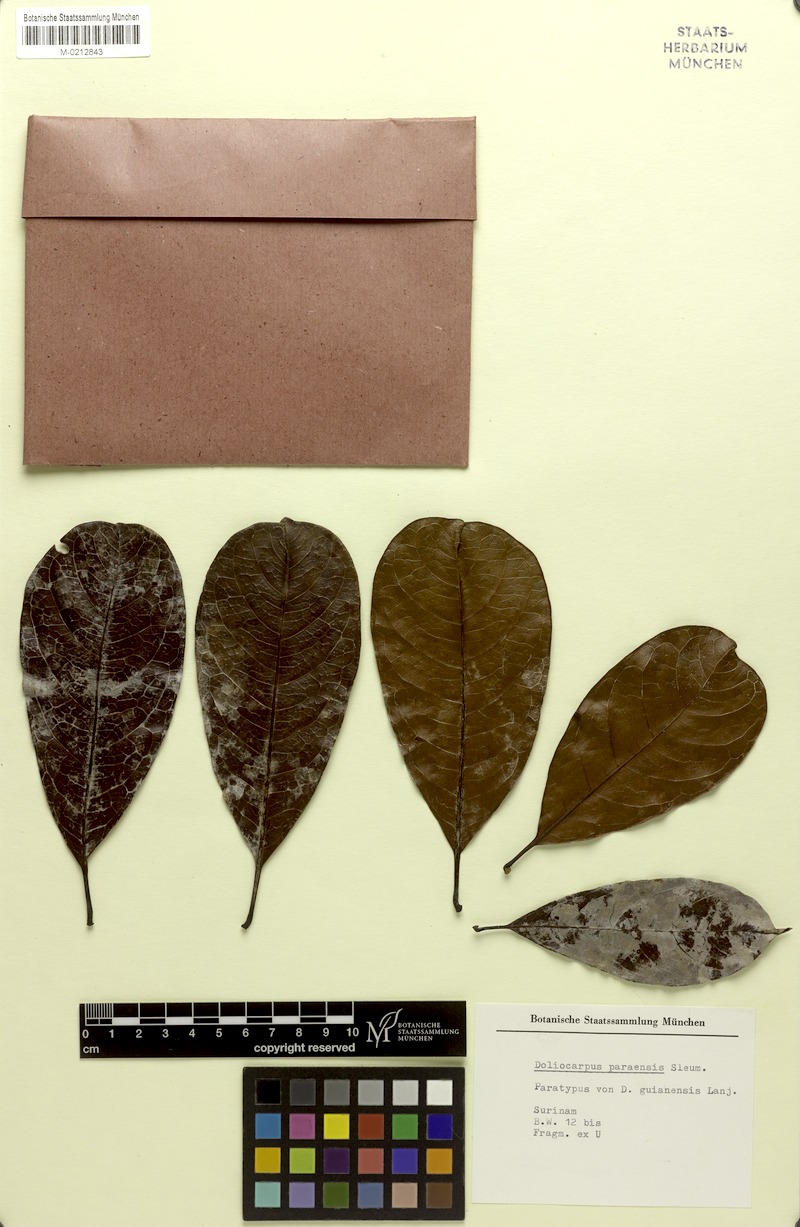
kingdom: Plantae
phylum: Tracheophyta
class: Magnoliopsida
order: Dilleniales
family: Dilleniaceae
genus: Doliocarpus
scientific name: Doliocarpus paraensis
